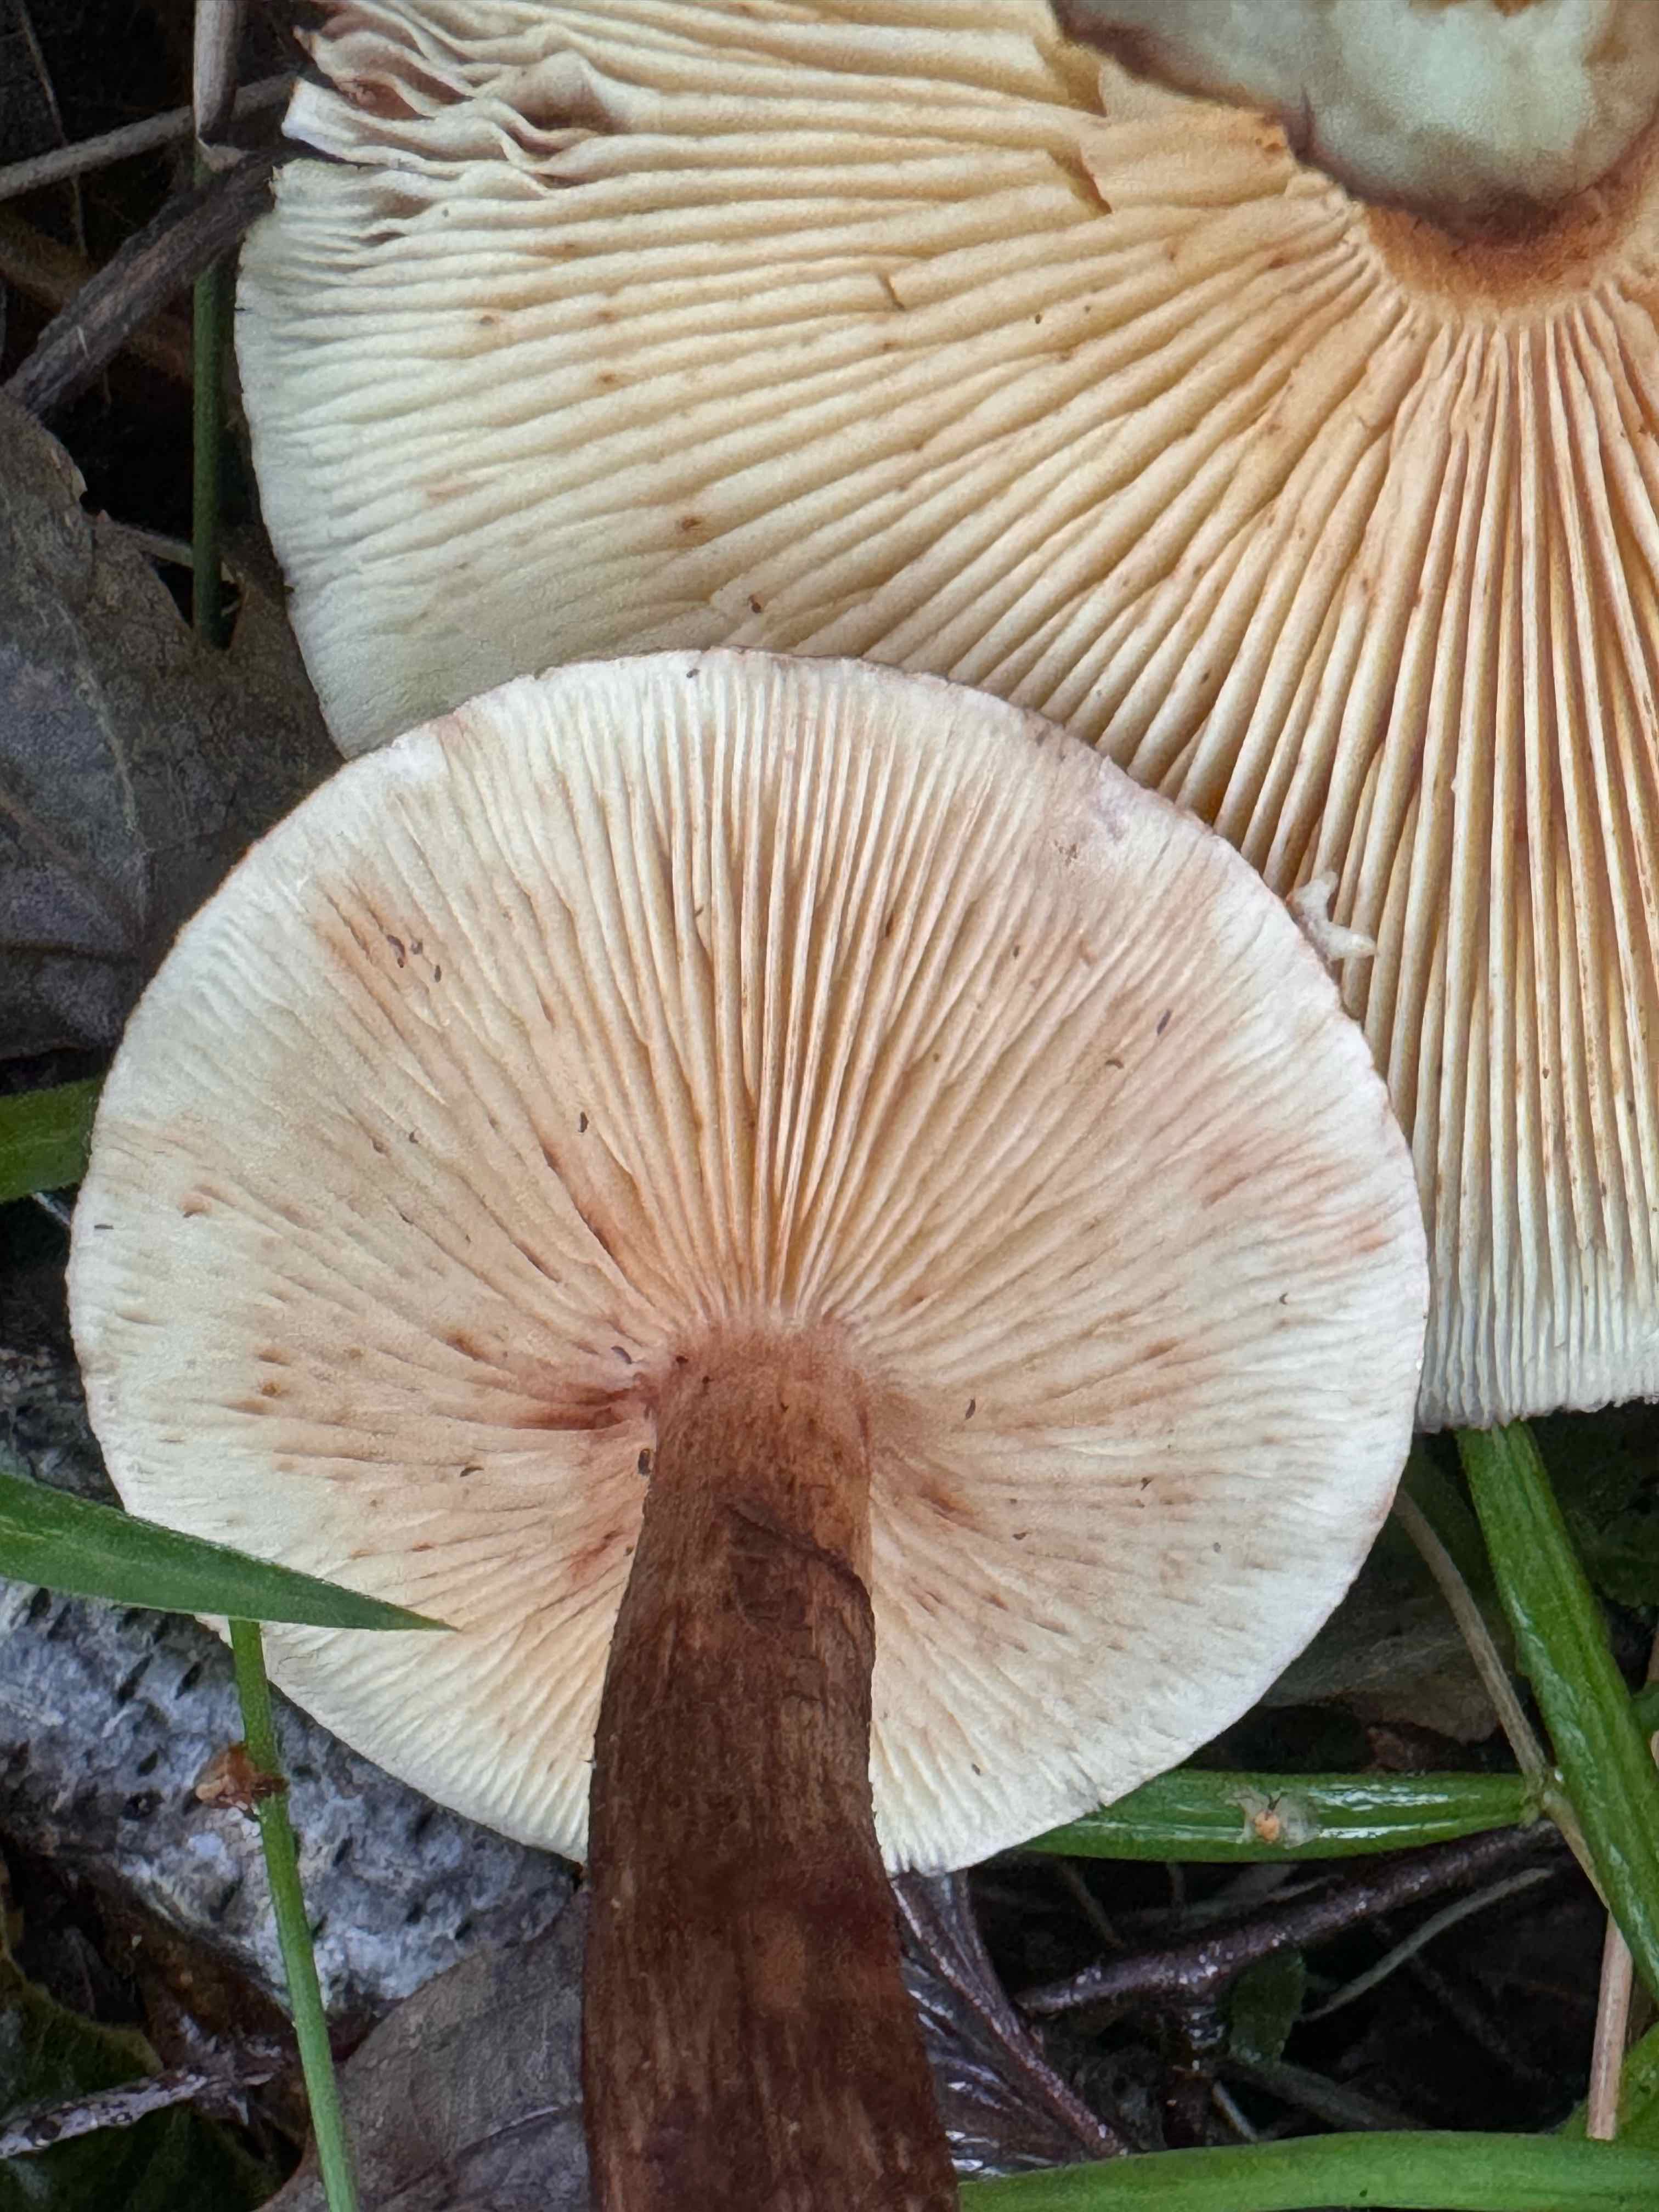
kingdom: Fungi
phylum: Basidiomycota
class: Agaricomycetes
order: Agaricales
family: Tricholomataceae
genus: Tricholoma
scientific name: Tricholoma fulvum
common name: birke-ridderhat
